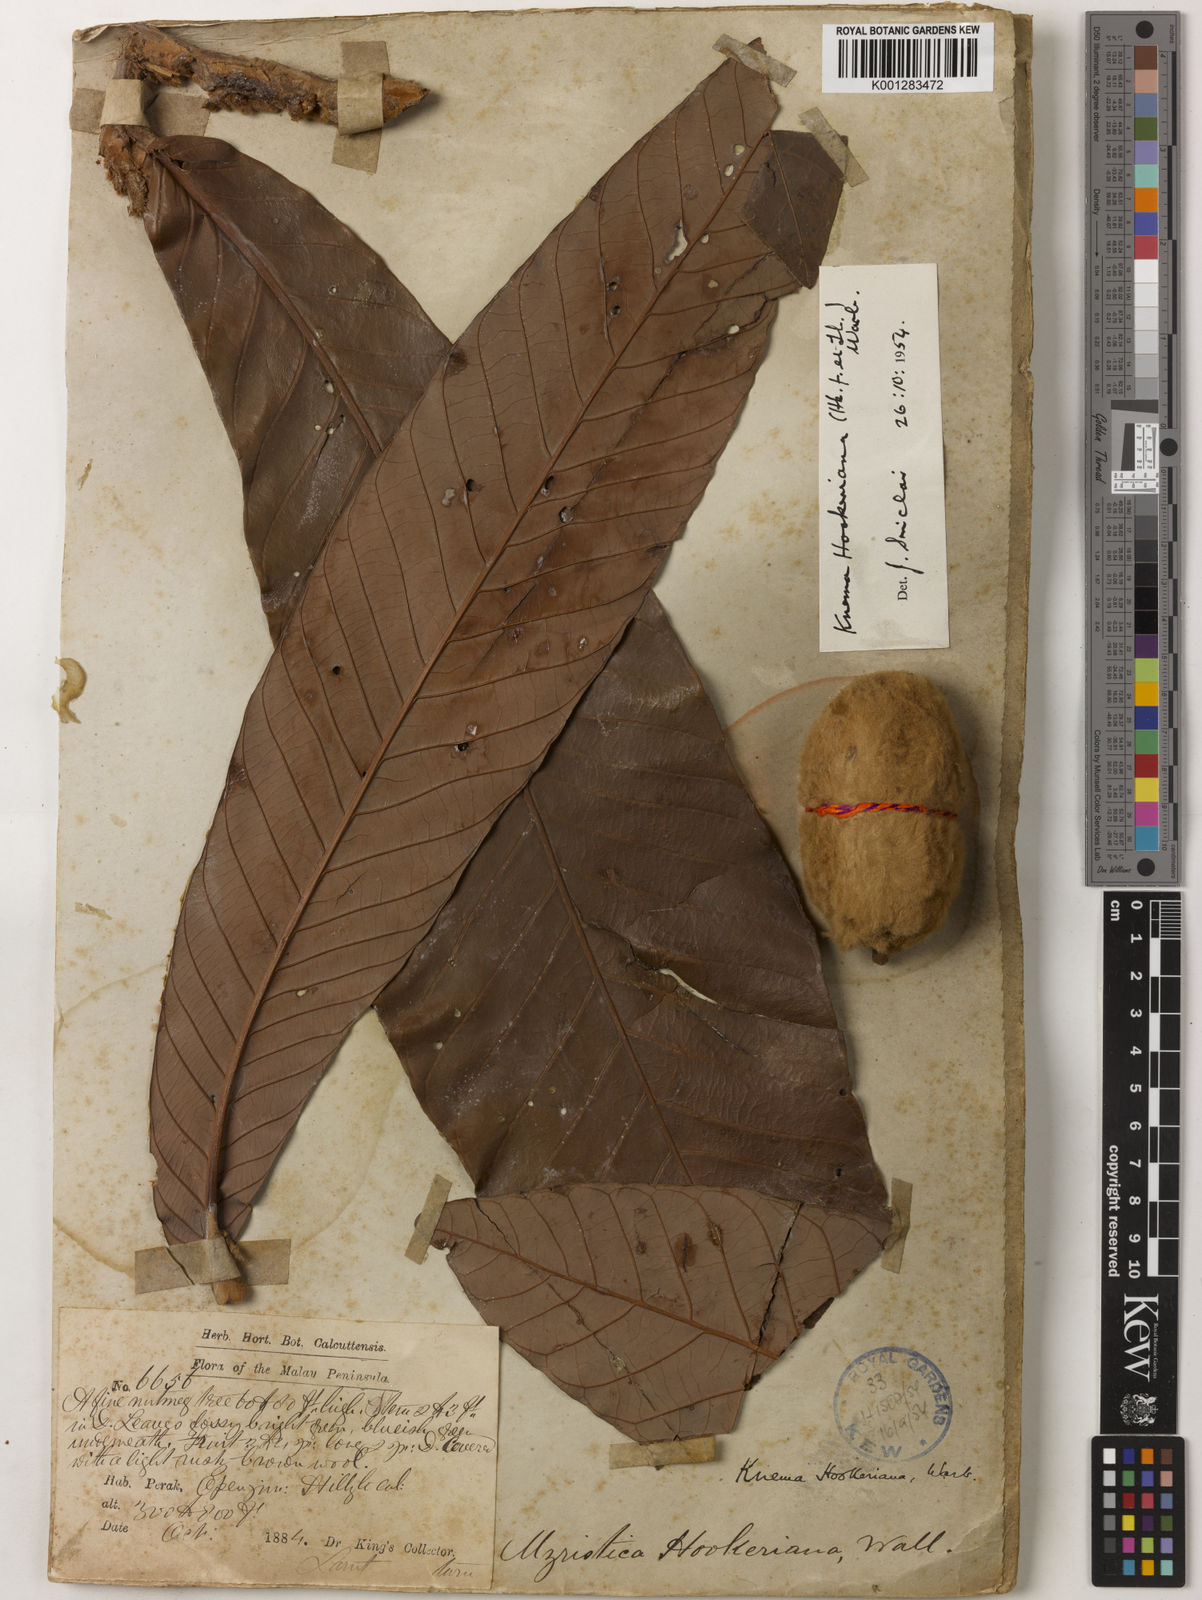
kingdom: Plantae
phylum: Tracheophyta
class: Magnoliopsida
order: Magnoliales
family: Myristicaceae
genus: Knema
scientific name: Knema hookeriana
